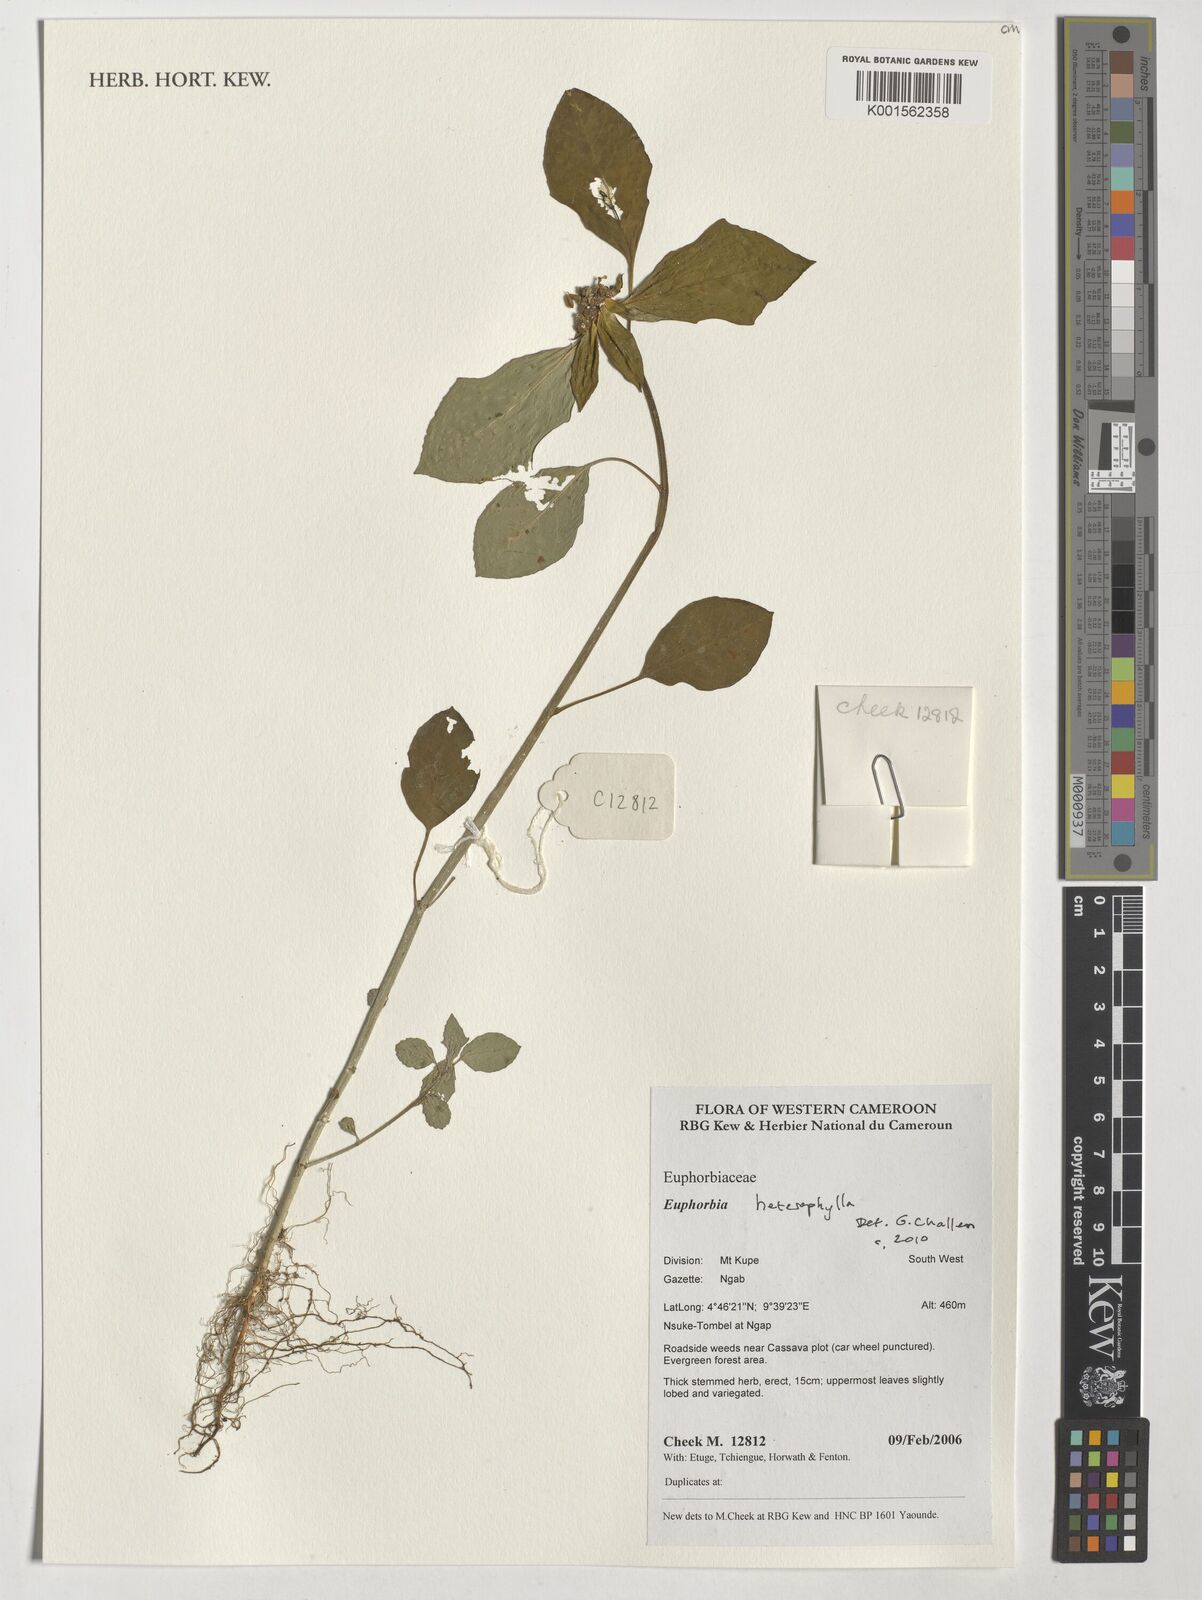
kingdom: Plantae
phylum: Tracheophyta
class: Magnoliopsida
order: Malpighiales
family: Euphorbiaceae
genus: Euphorbia
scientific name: Euphorbia heterophylla
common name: Mexican fireplant
